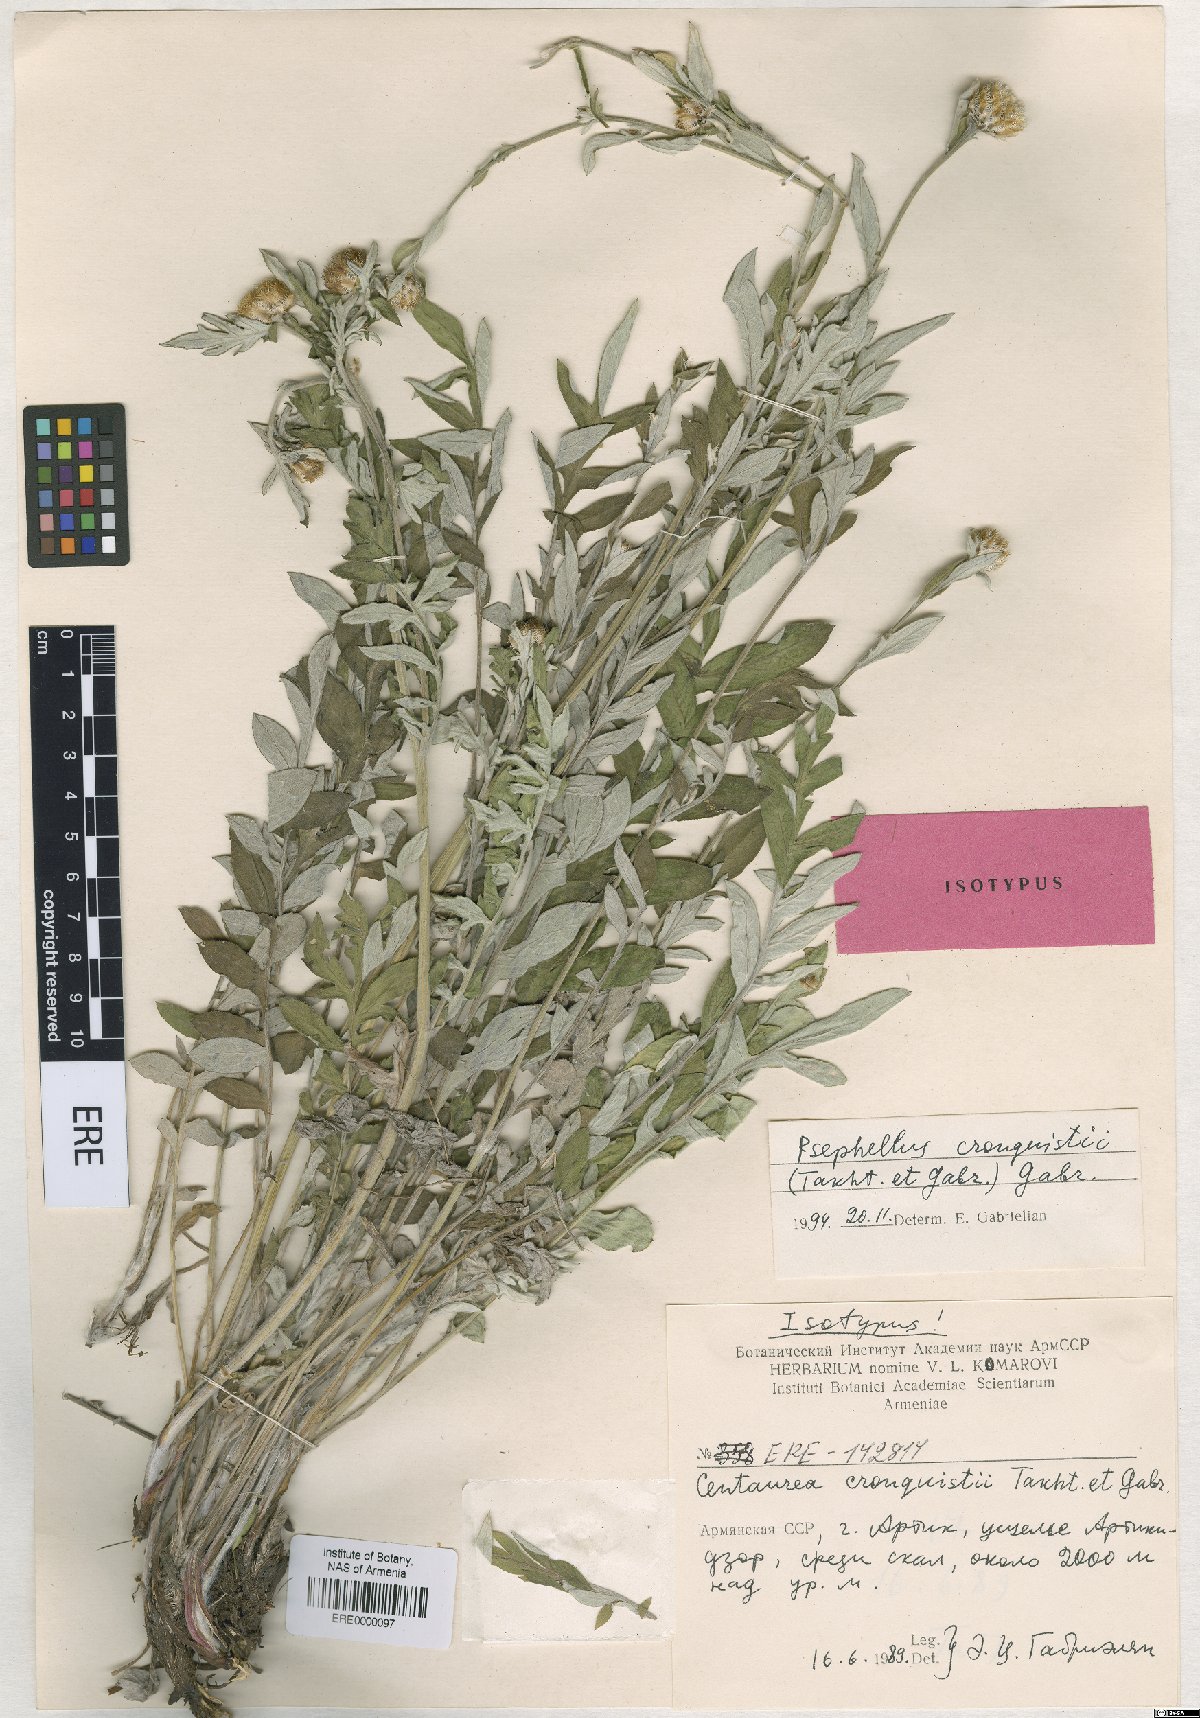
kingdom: Plantae
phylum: Tracheophyta
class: Magnoliopsida
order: Asterales
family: Asteraceae
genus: Psephellus
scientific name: Psephellus cronquistii
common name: Cronquists's cornflower
